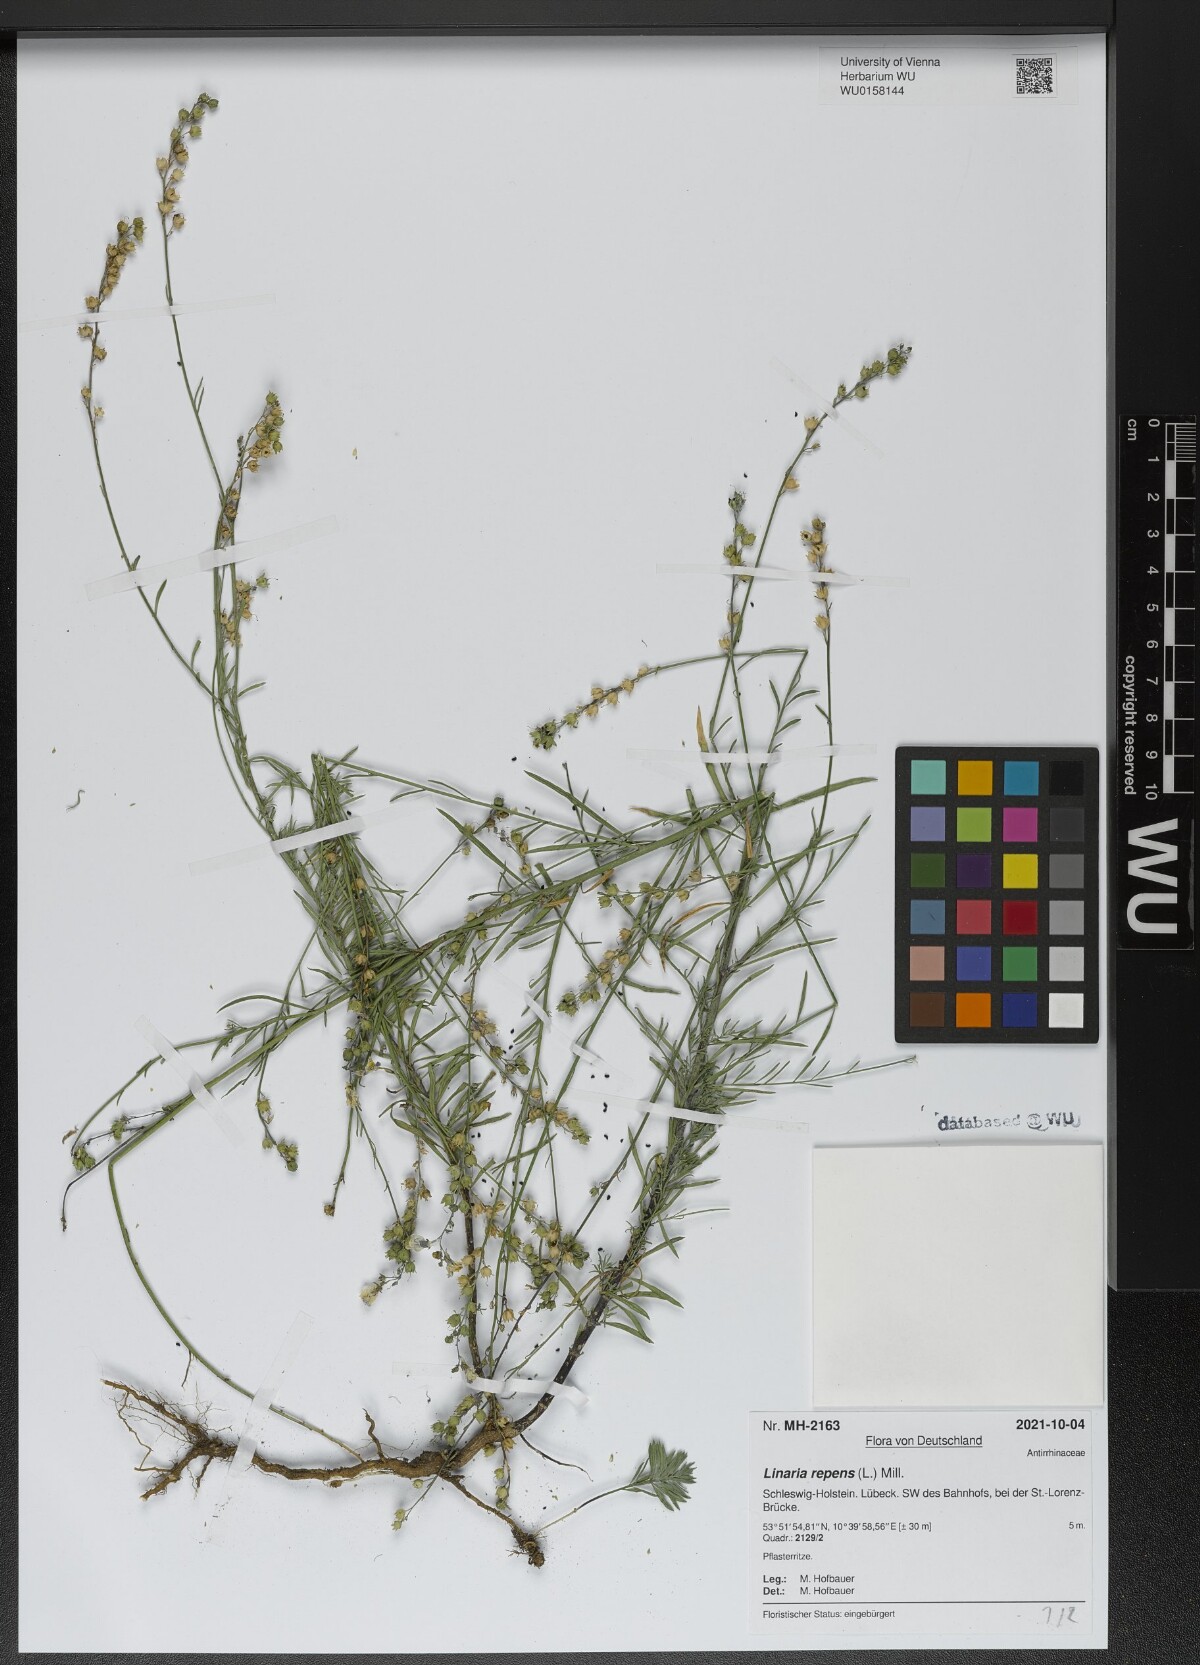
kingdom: Plantae
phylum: Tracheophyta
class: Magnoliopsida
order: Lamiales
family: Plantaginaceae
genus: Linaria
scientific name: Linaria repens
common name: Pale toadflax
